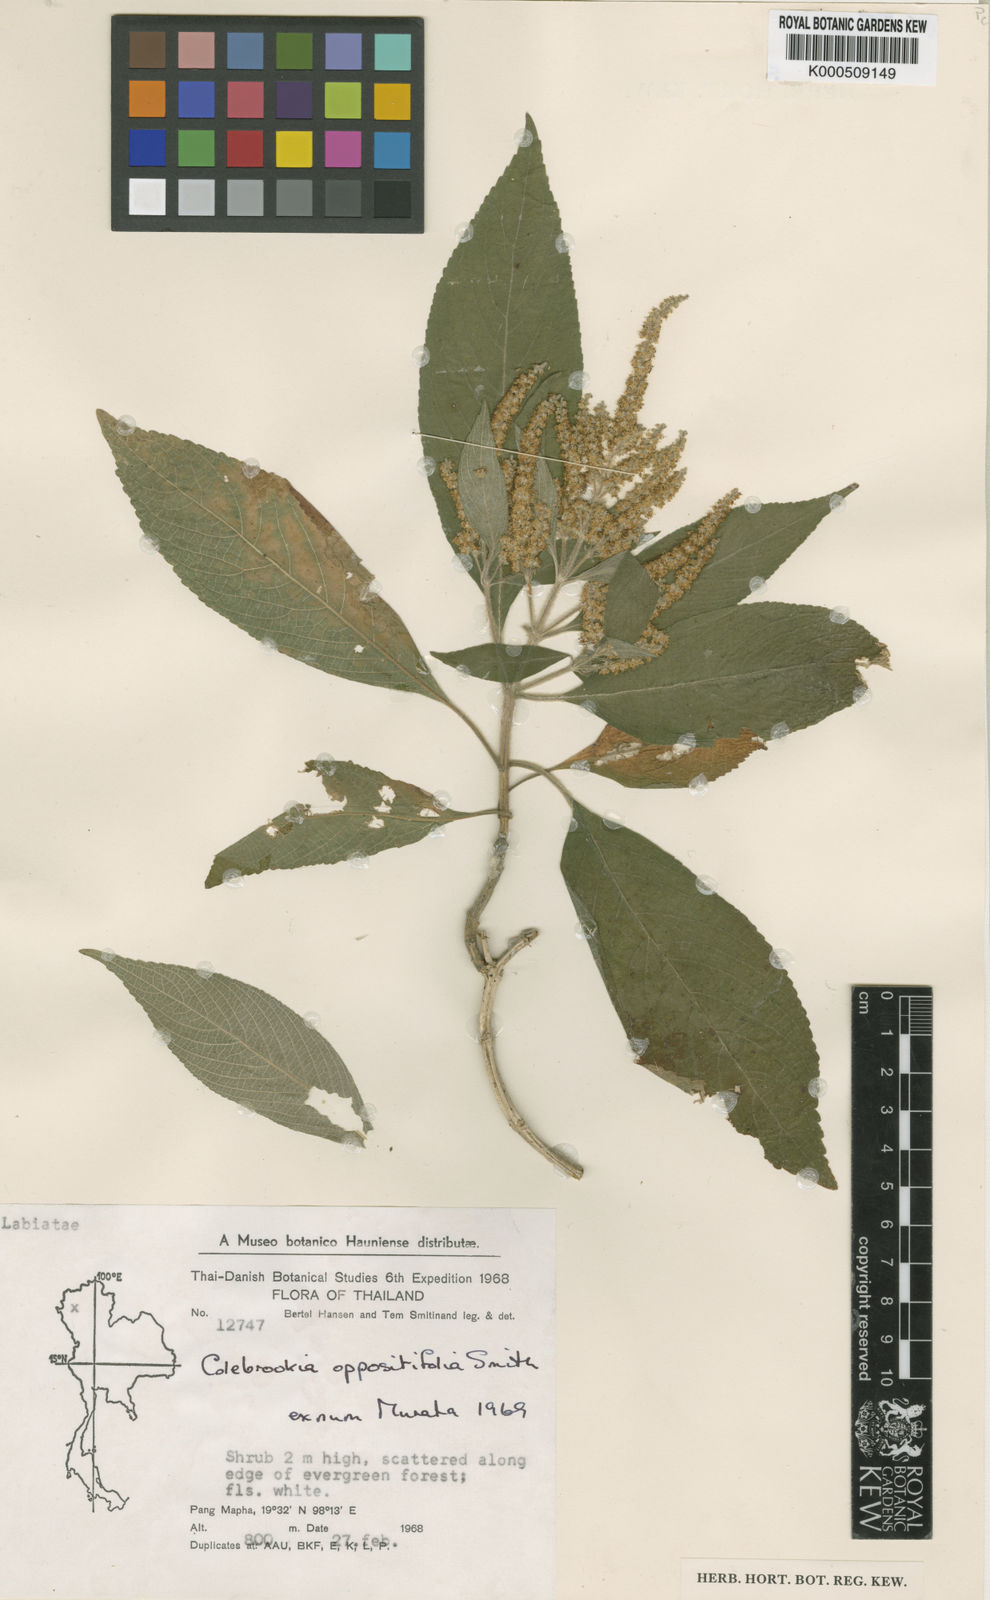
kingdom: Plantae
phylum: Tracheophyta
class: Magnoliopsida
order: Lamiales
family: Lamiaceae
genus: Colebrookea
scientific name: Colebrookea oppositifolia
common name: Indian squirrel tail
